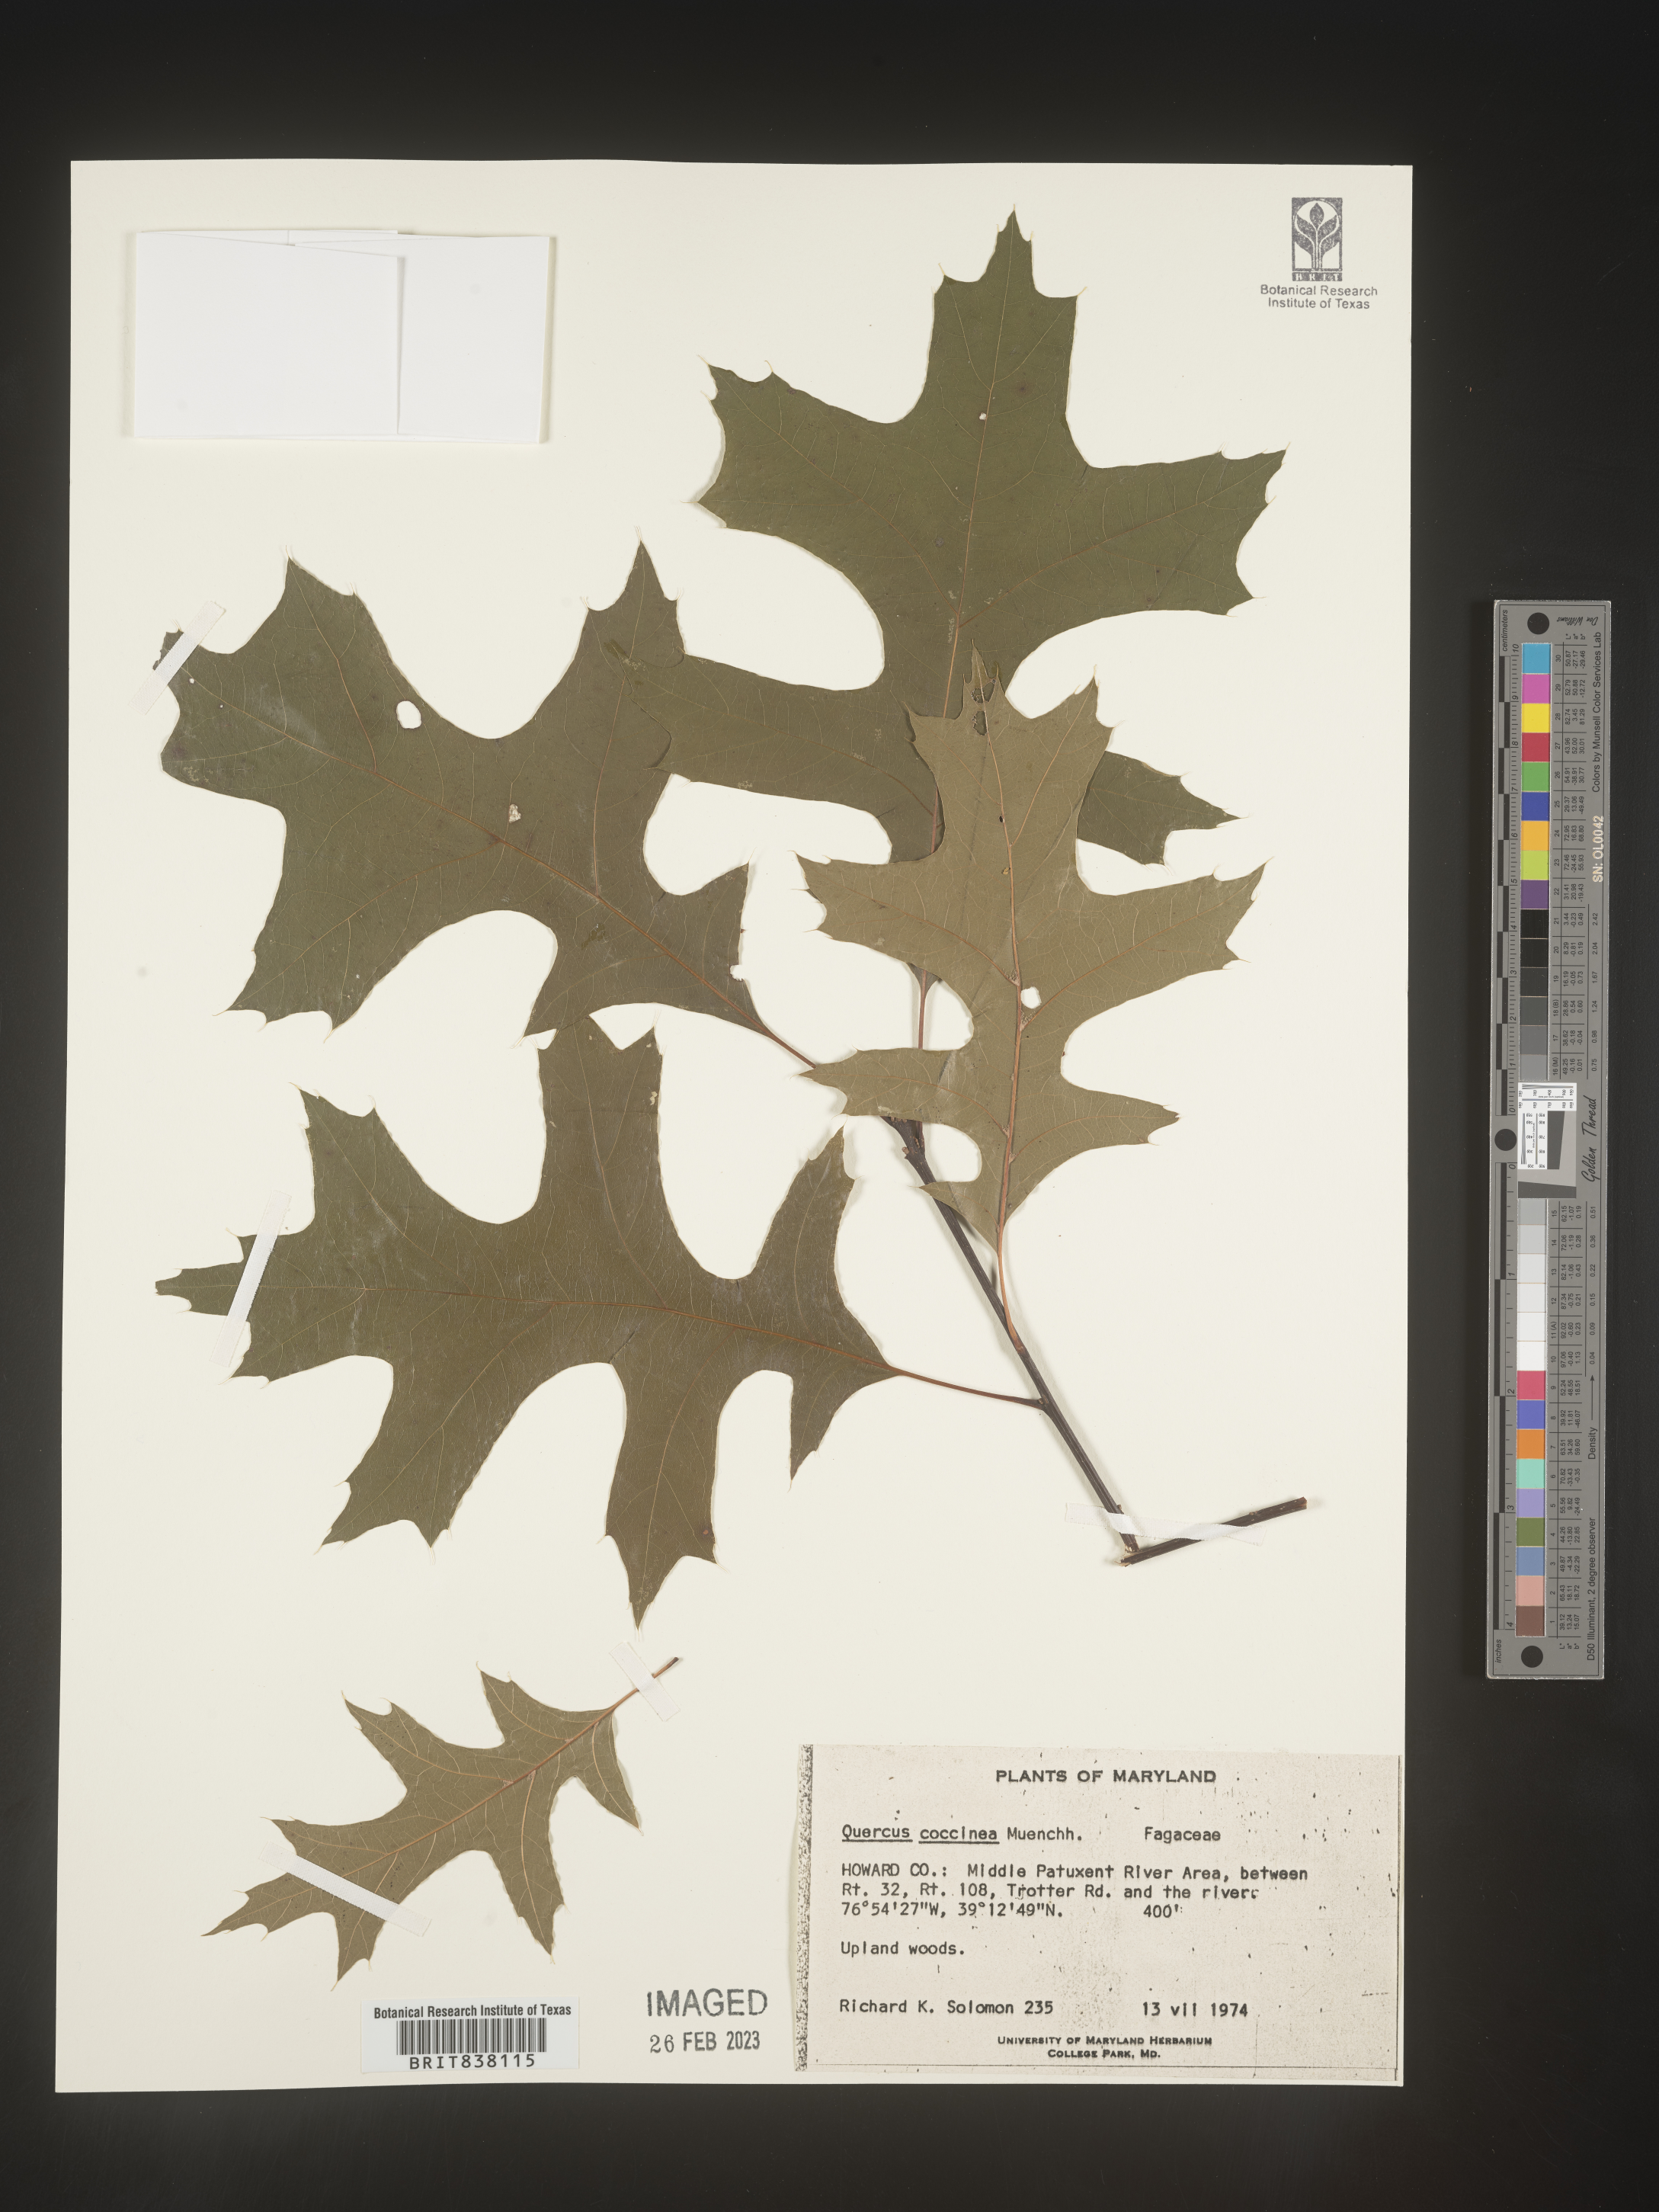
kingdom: Plantae
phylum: Tracheophyta
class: Magnoliopsida
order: Fagales
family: Fagaceae
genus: Quercus
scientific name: Quercus coccinea
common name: Scarlet oak
